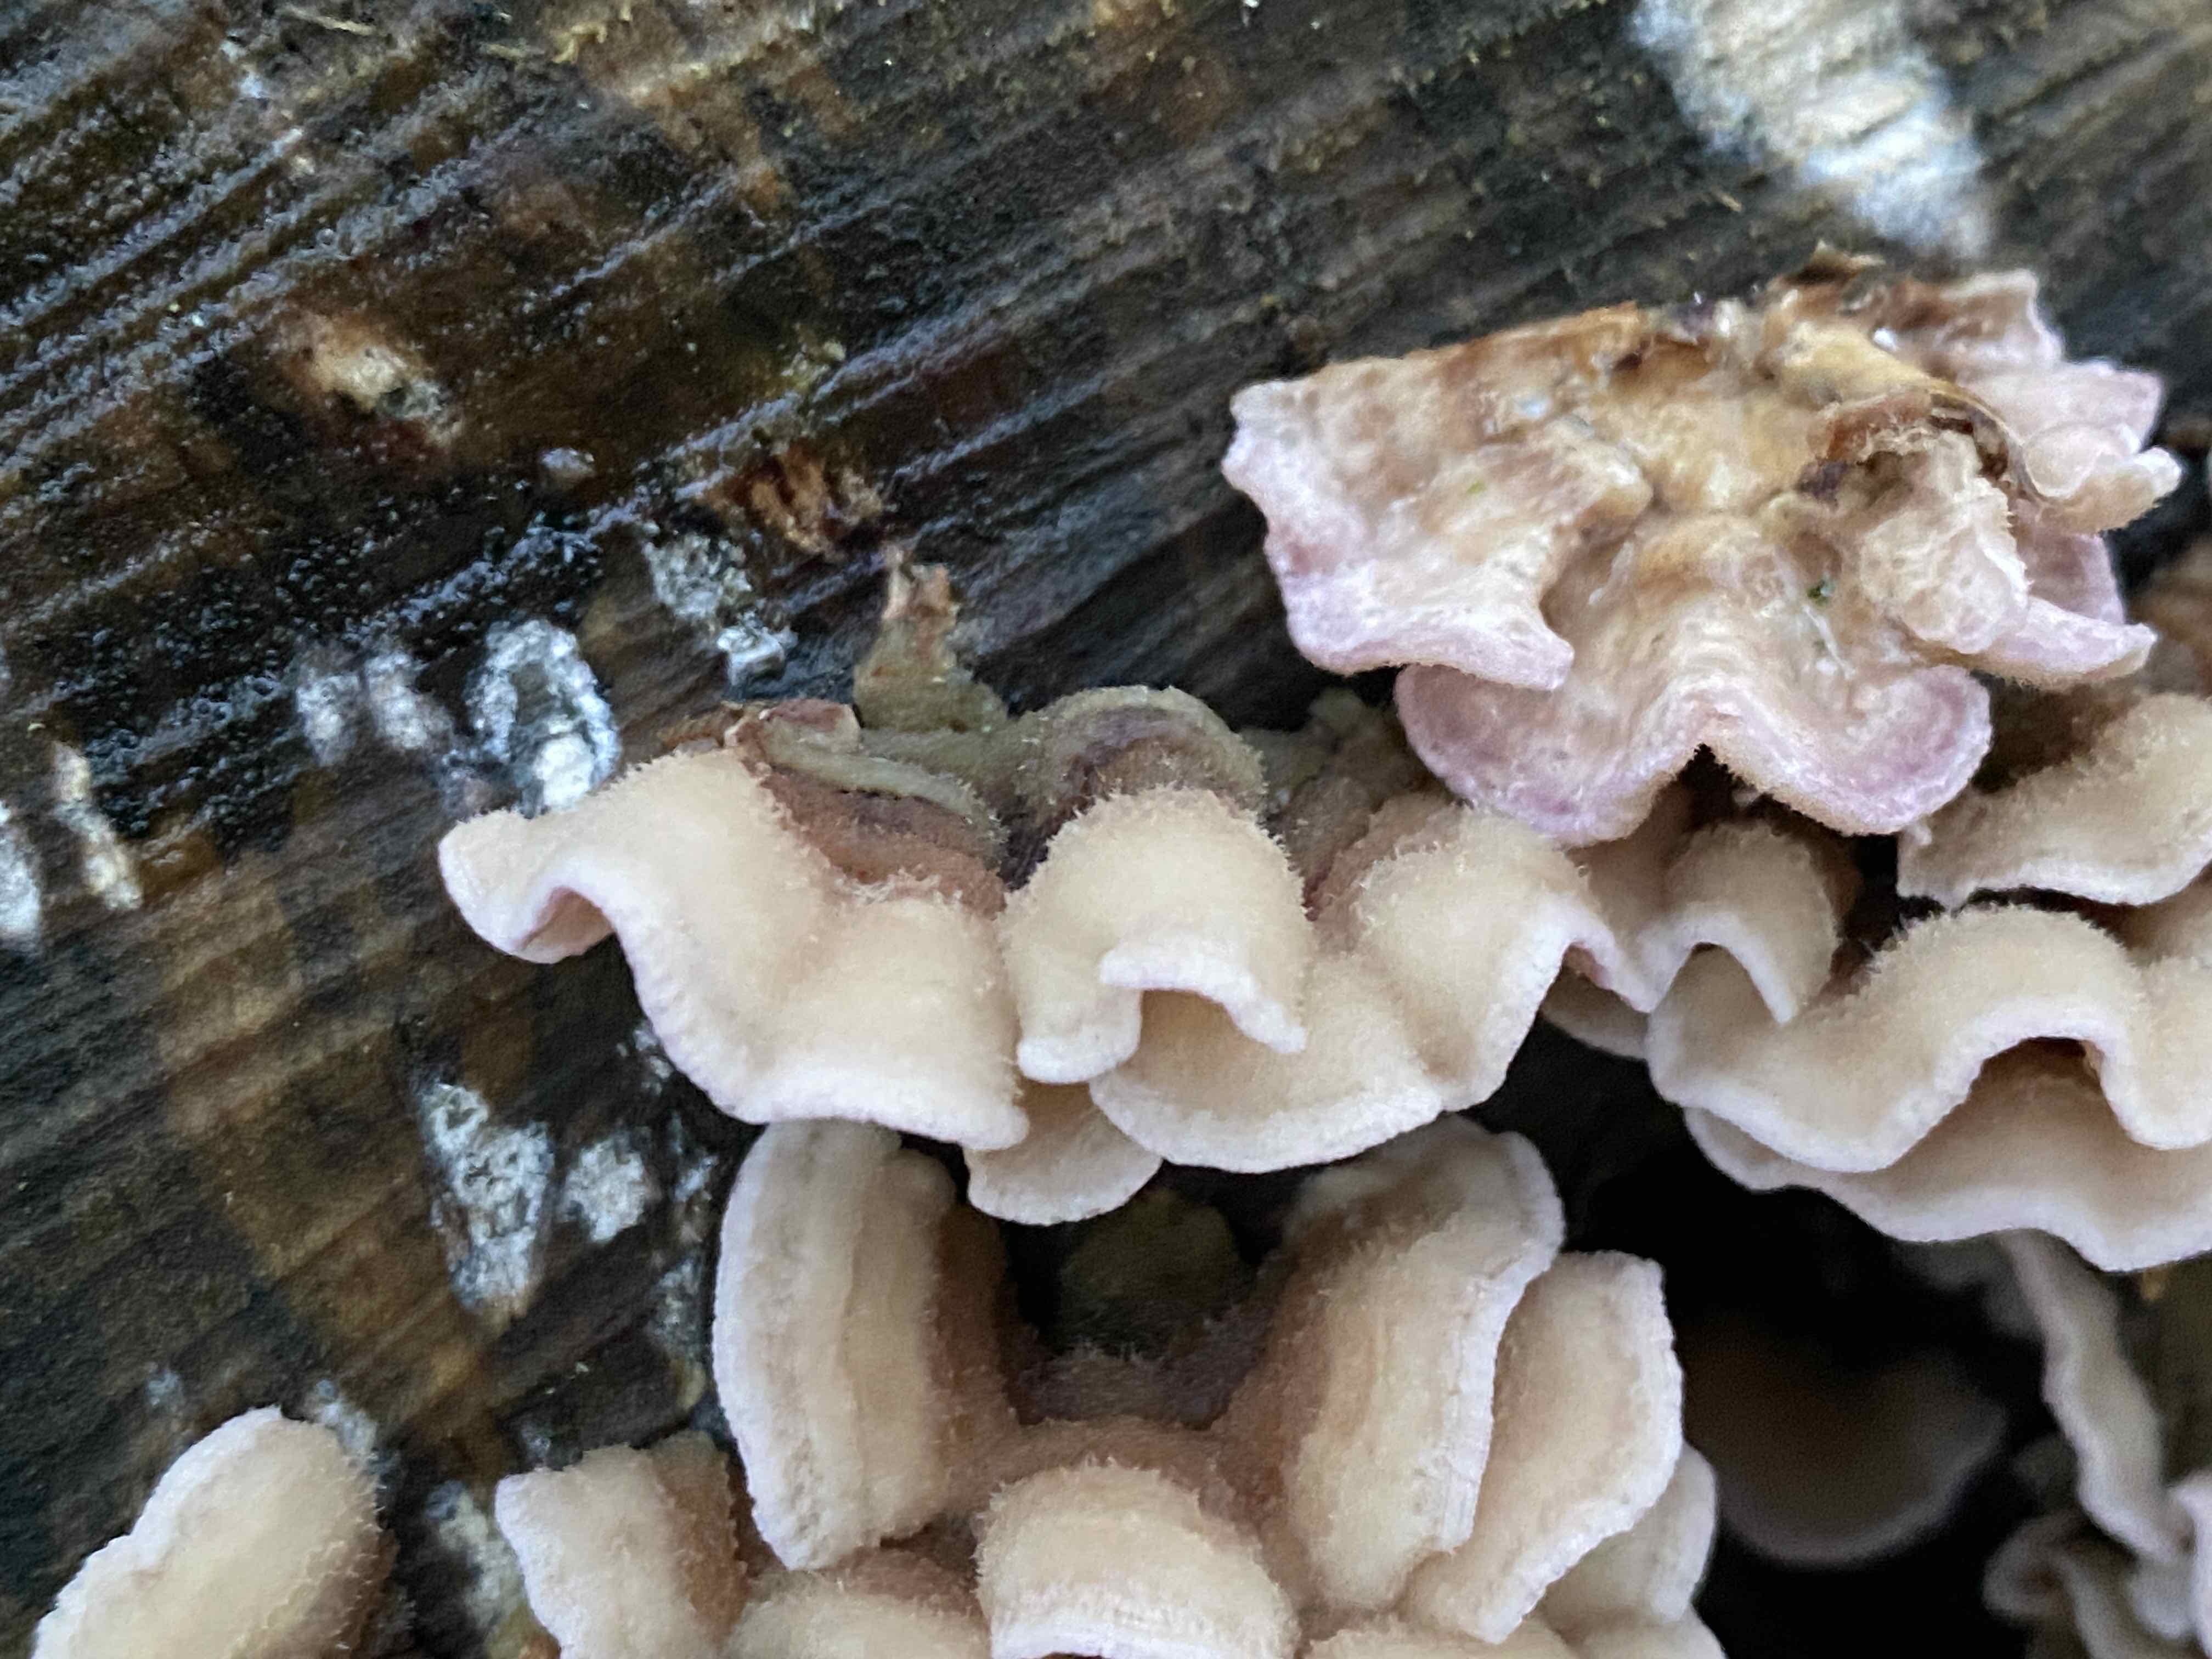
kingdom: Fungi
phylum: Basidiomycota
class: Agaricomycetes
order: Agaricales
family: Cyphellaceae
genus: Chondrostereum
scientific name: Chondrostereum purpureum
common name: purpurlædersvamp
